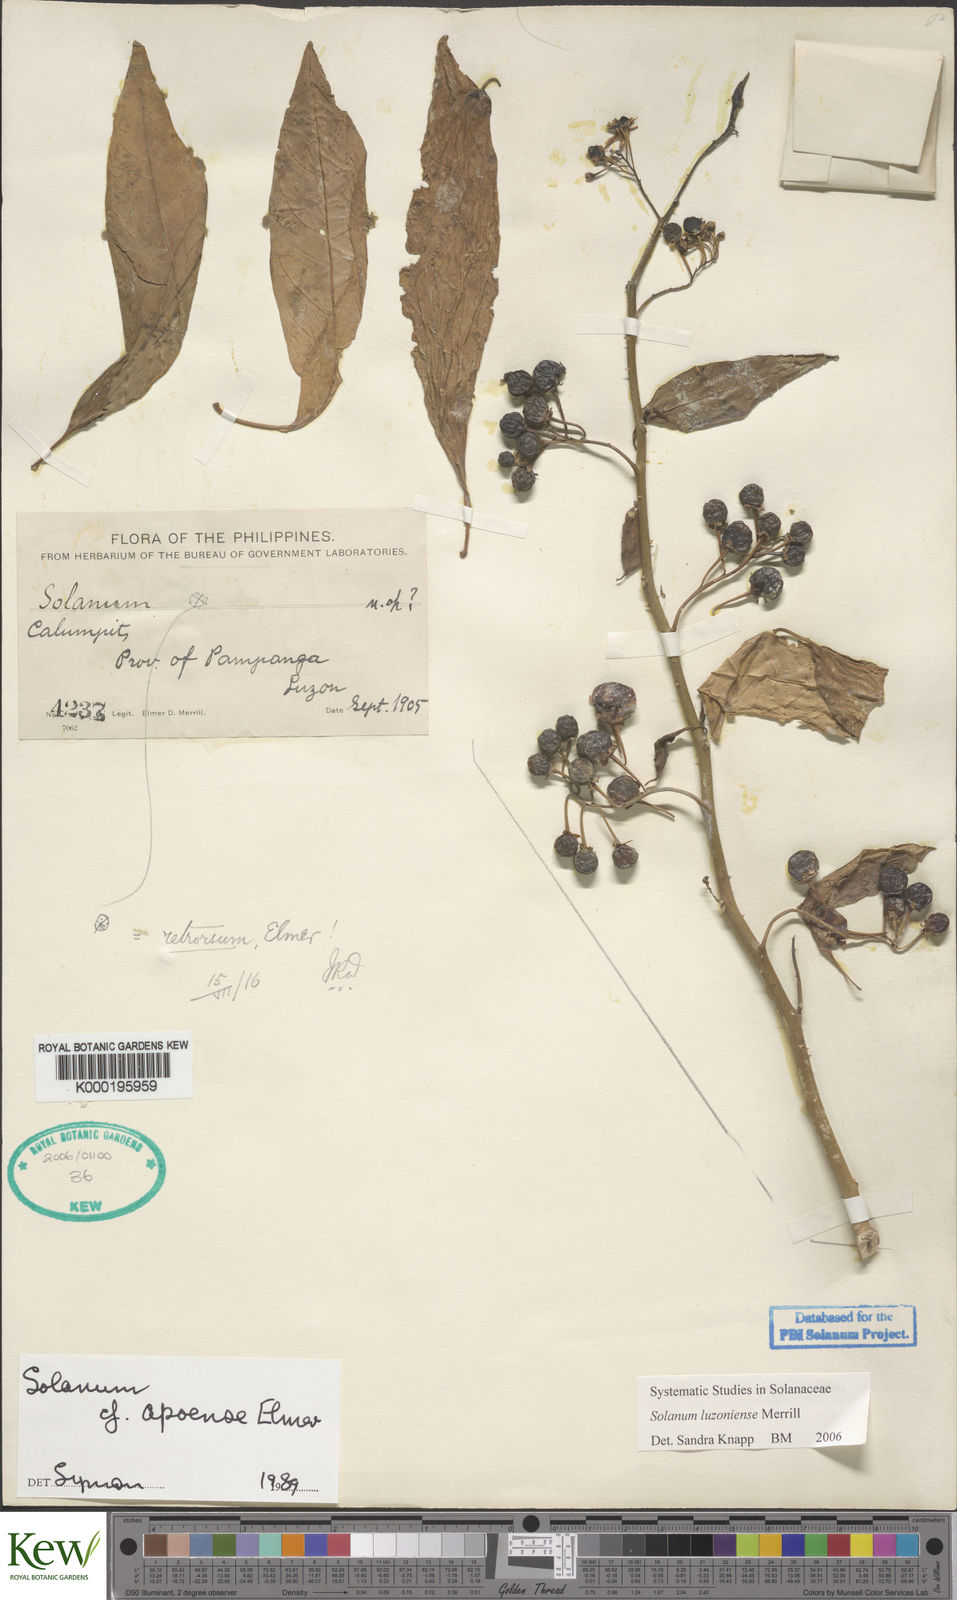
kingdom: Plantae
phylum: Tracheophyta
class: Magnoliopsida
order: Solanales
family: Solanaceae
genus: Solanum
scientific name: Solanum retrorsum
